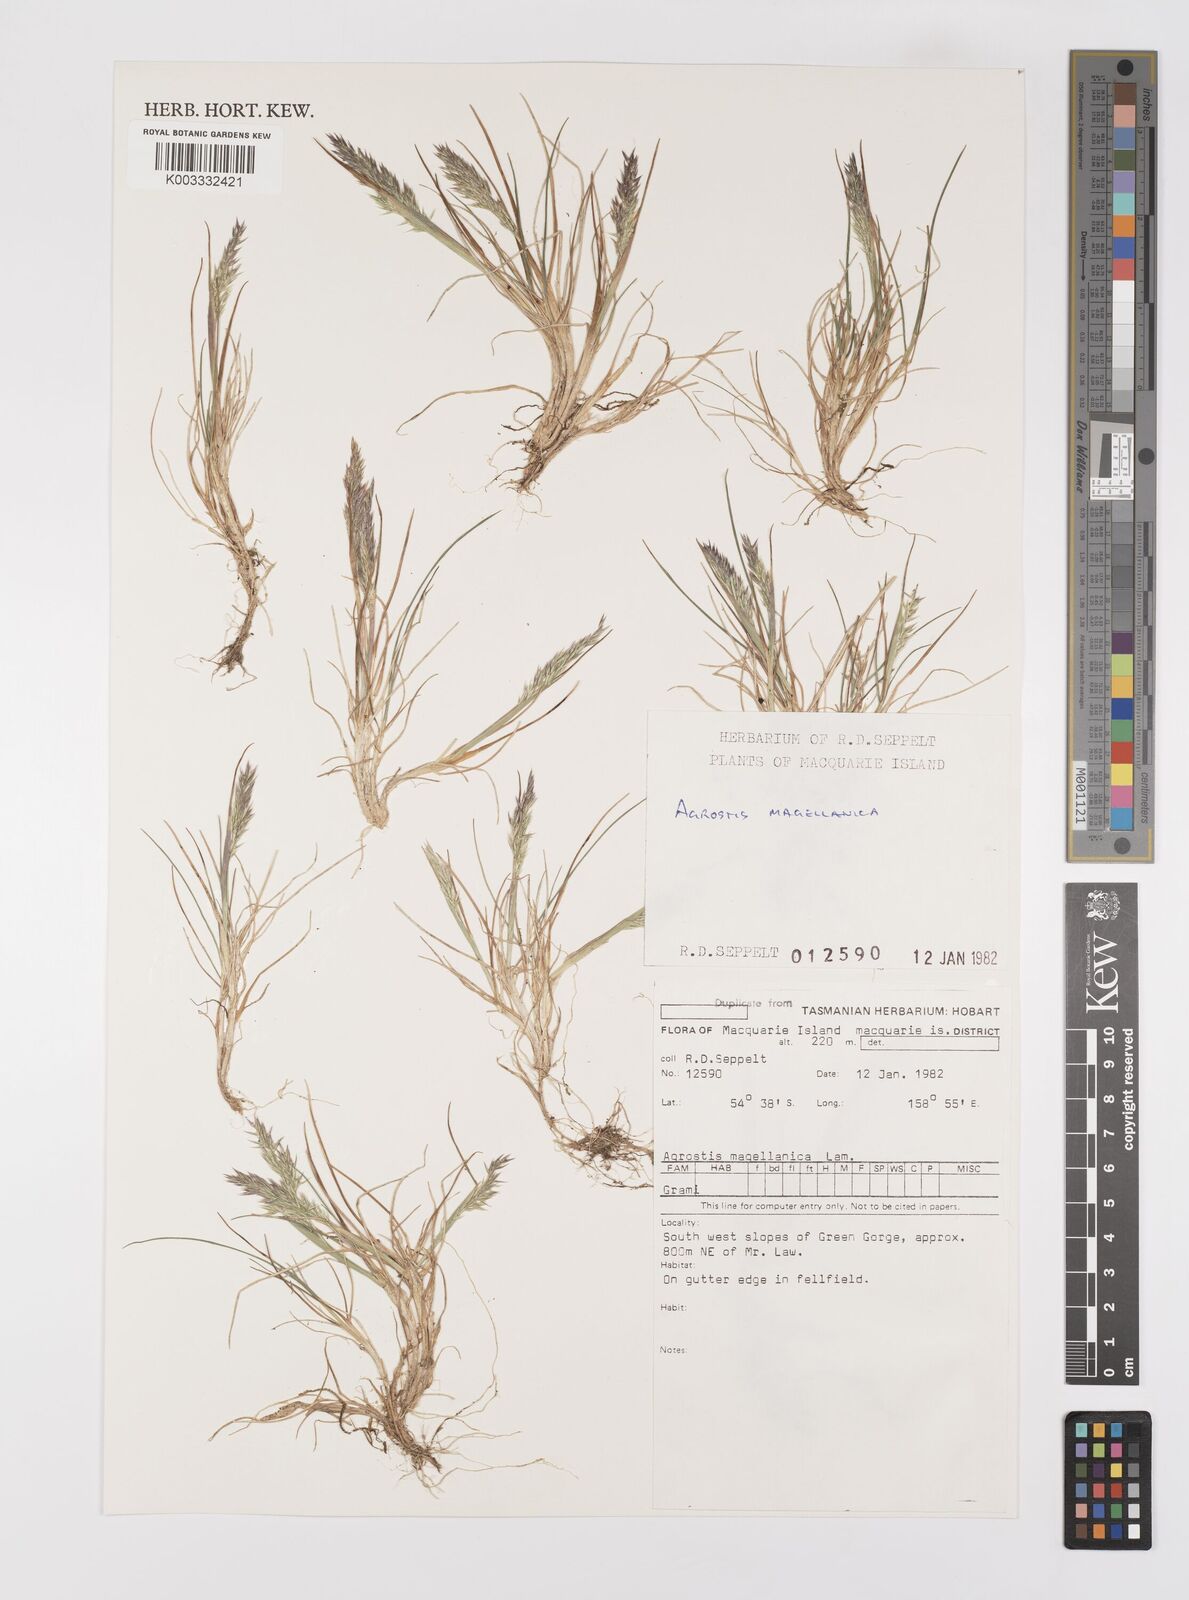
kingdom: Plantae
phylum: Tracheophyta
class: Liliopsida
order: Poales
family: Poaceae
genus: Polypogon
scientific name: Polypogon magellanicus
